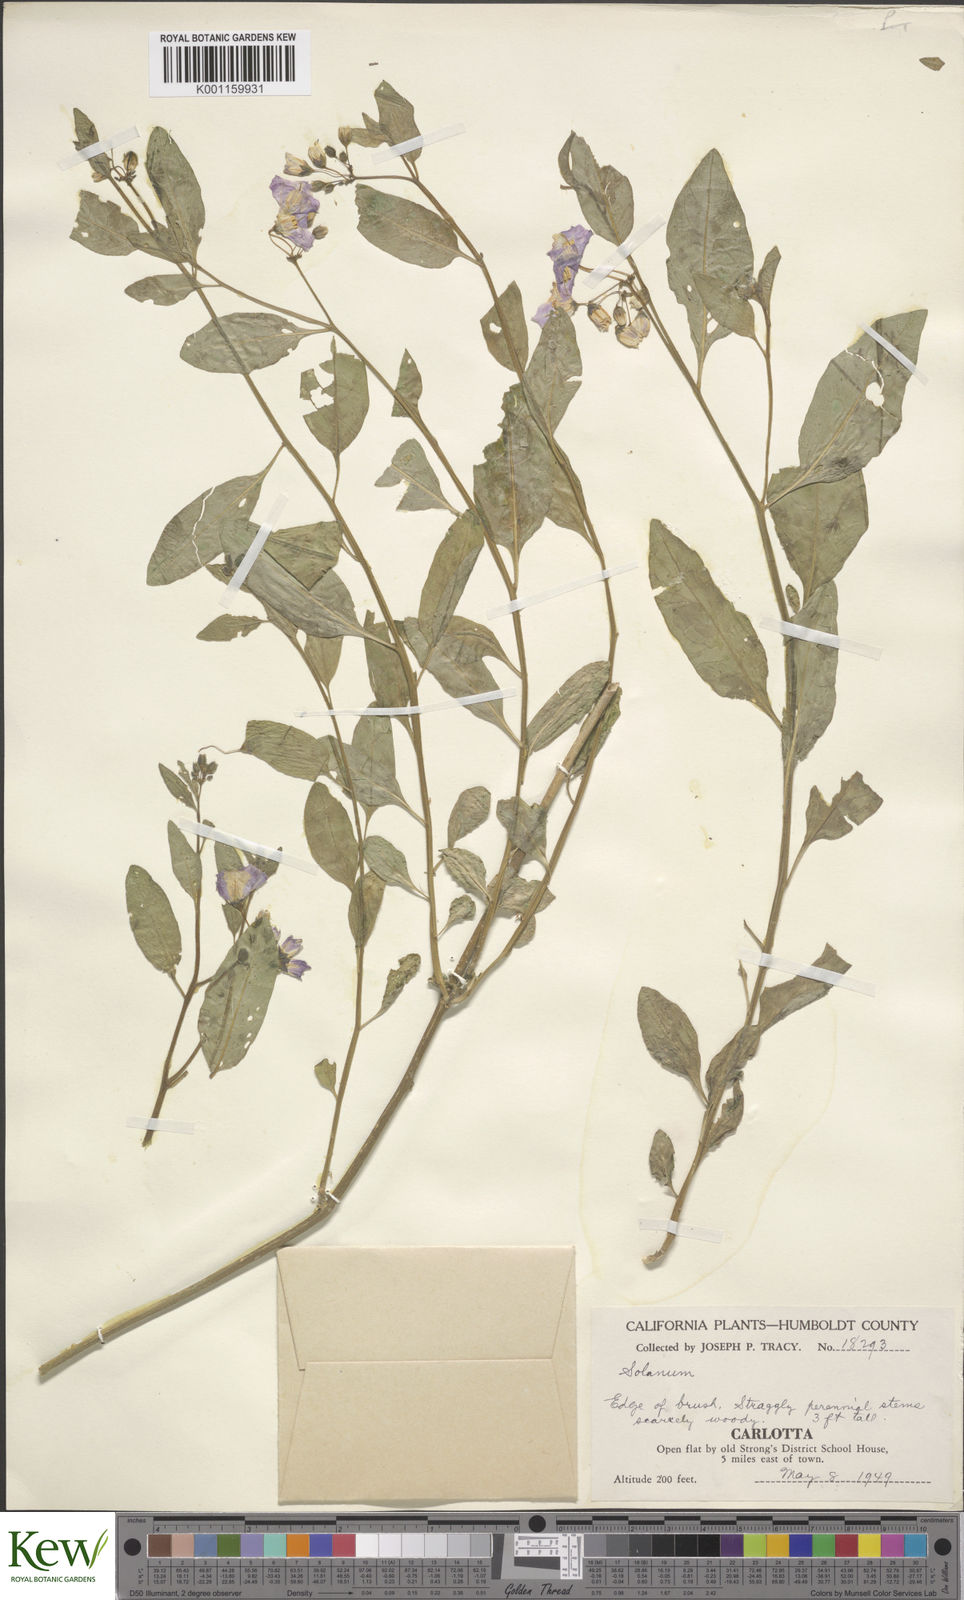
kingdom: Plantae
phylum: Tracheophyta
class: Magnoliopsida
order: Solanales
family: Solanaceae
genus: Solanum
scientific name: Solanum umbelliferum
